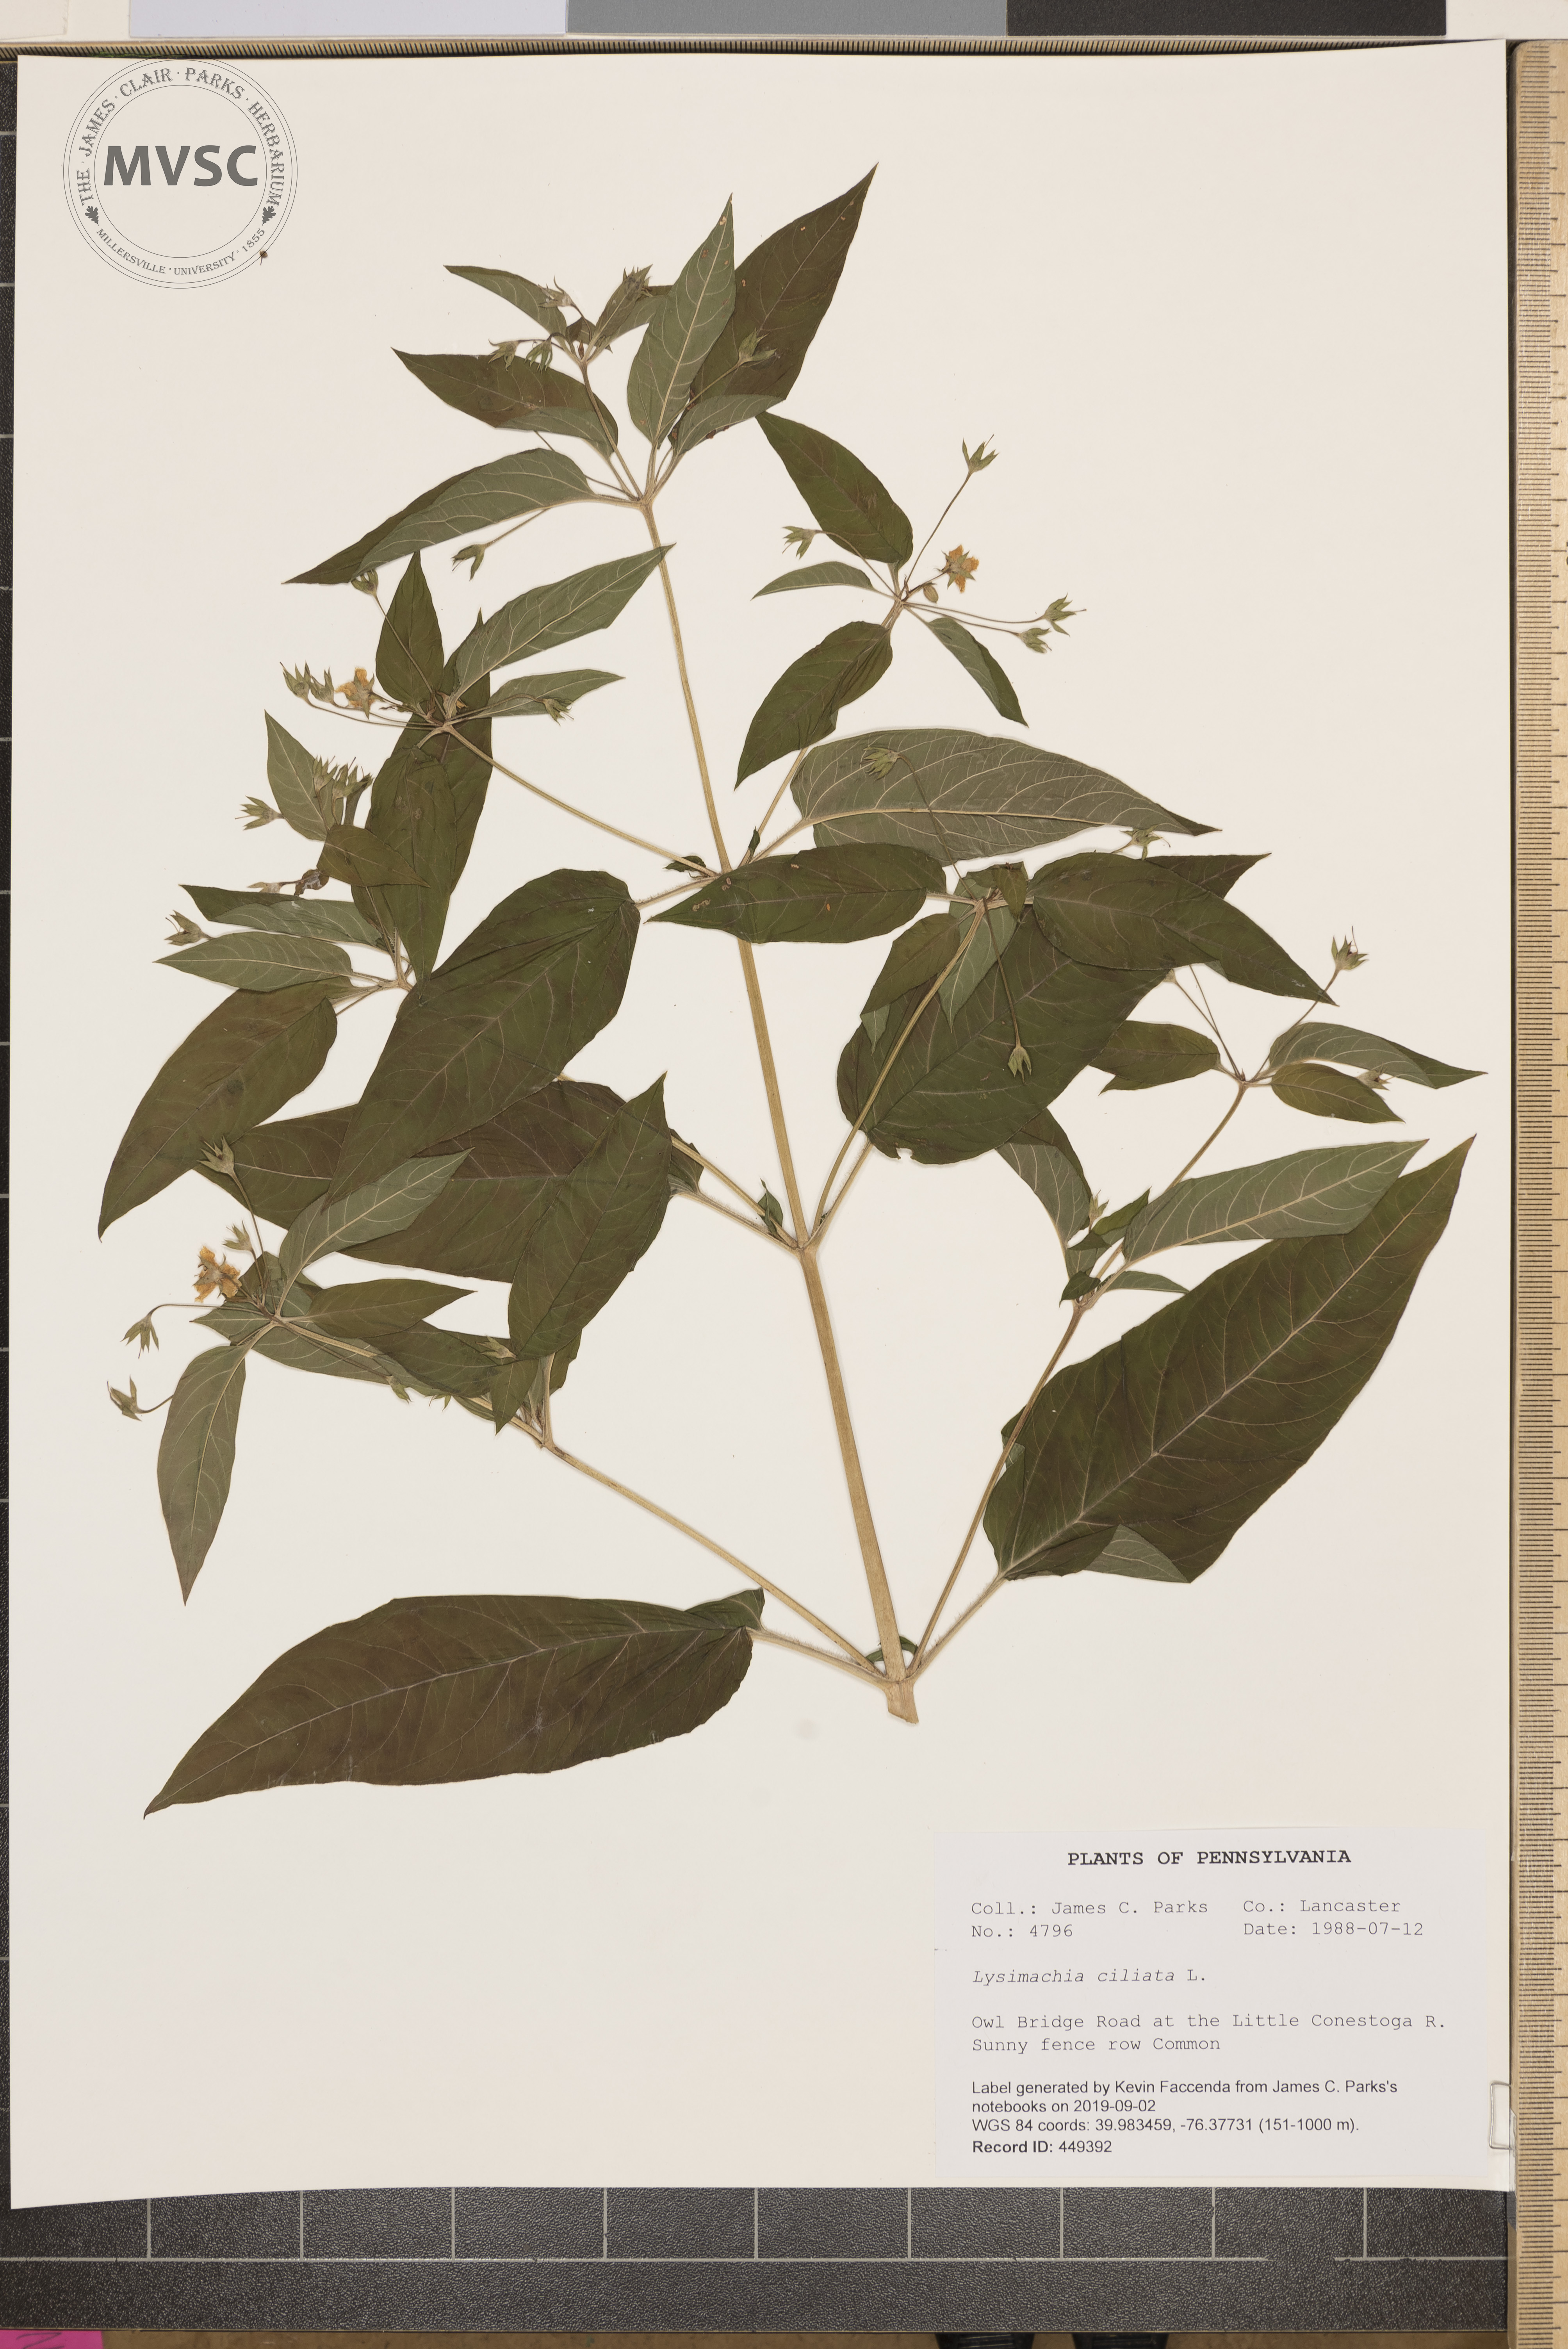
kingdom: Plantae
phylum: Tracheophyta
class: Magnoliopsida
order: Ericales
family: Primulaceae
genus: Lysimachia
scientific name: Lysimachia ciliata
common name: Fringed loosestrife
